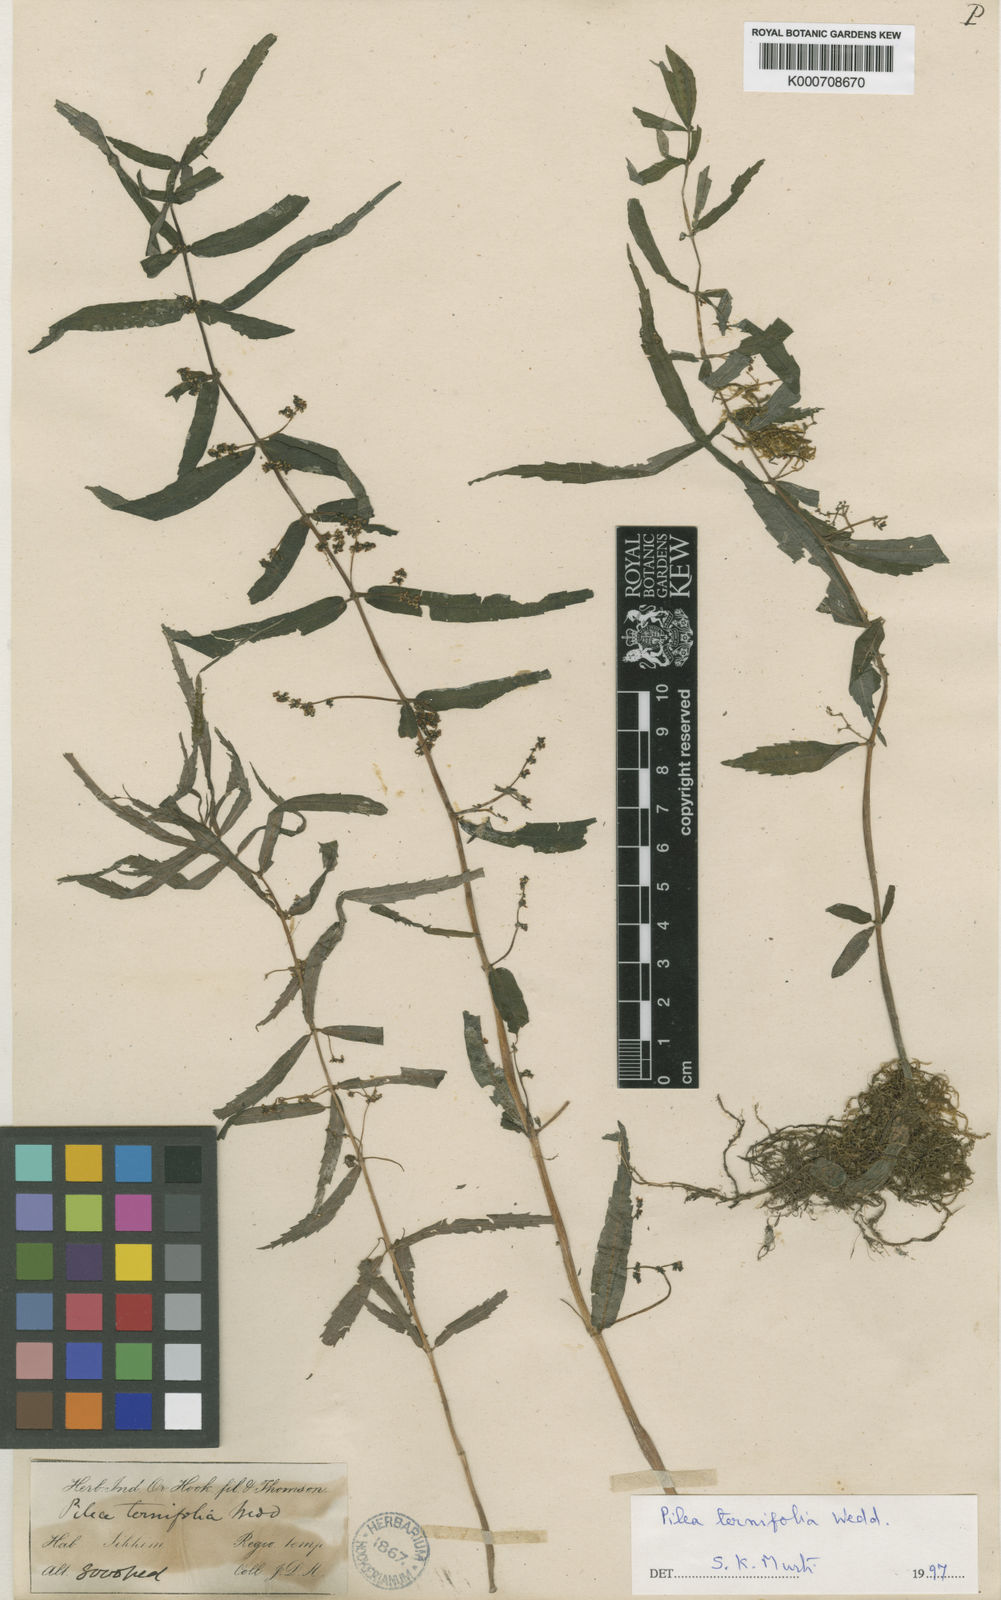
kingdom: Plantae
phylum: Tracheophyta
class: Magnoliopsida
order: Rosales
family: Urticaceae
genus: Pilea
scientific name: Pilea ternifolia
